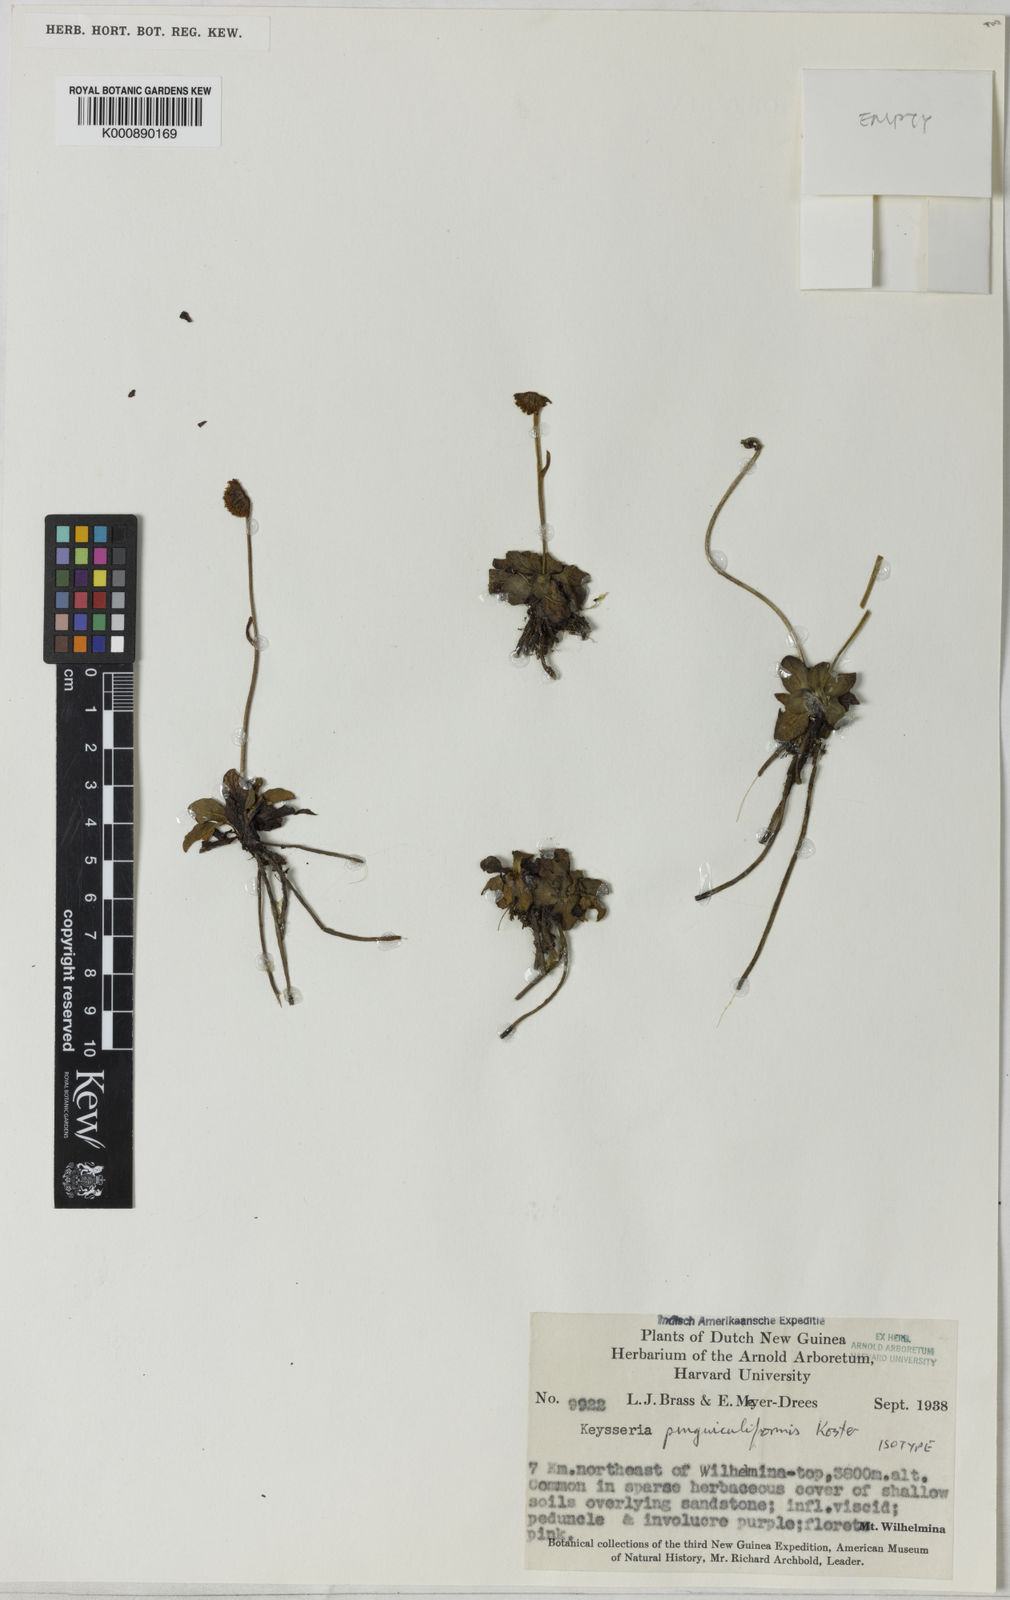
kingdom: Plantae
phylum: Tracheophyta
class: Magnoliopsida
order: Asterales
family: Asteraceae
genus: Keysseria
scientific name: Keysseria pinguiculiformis
